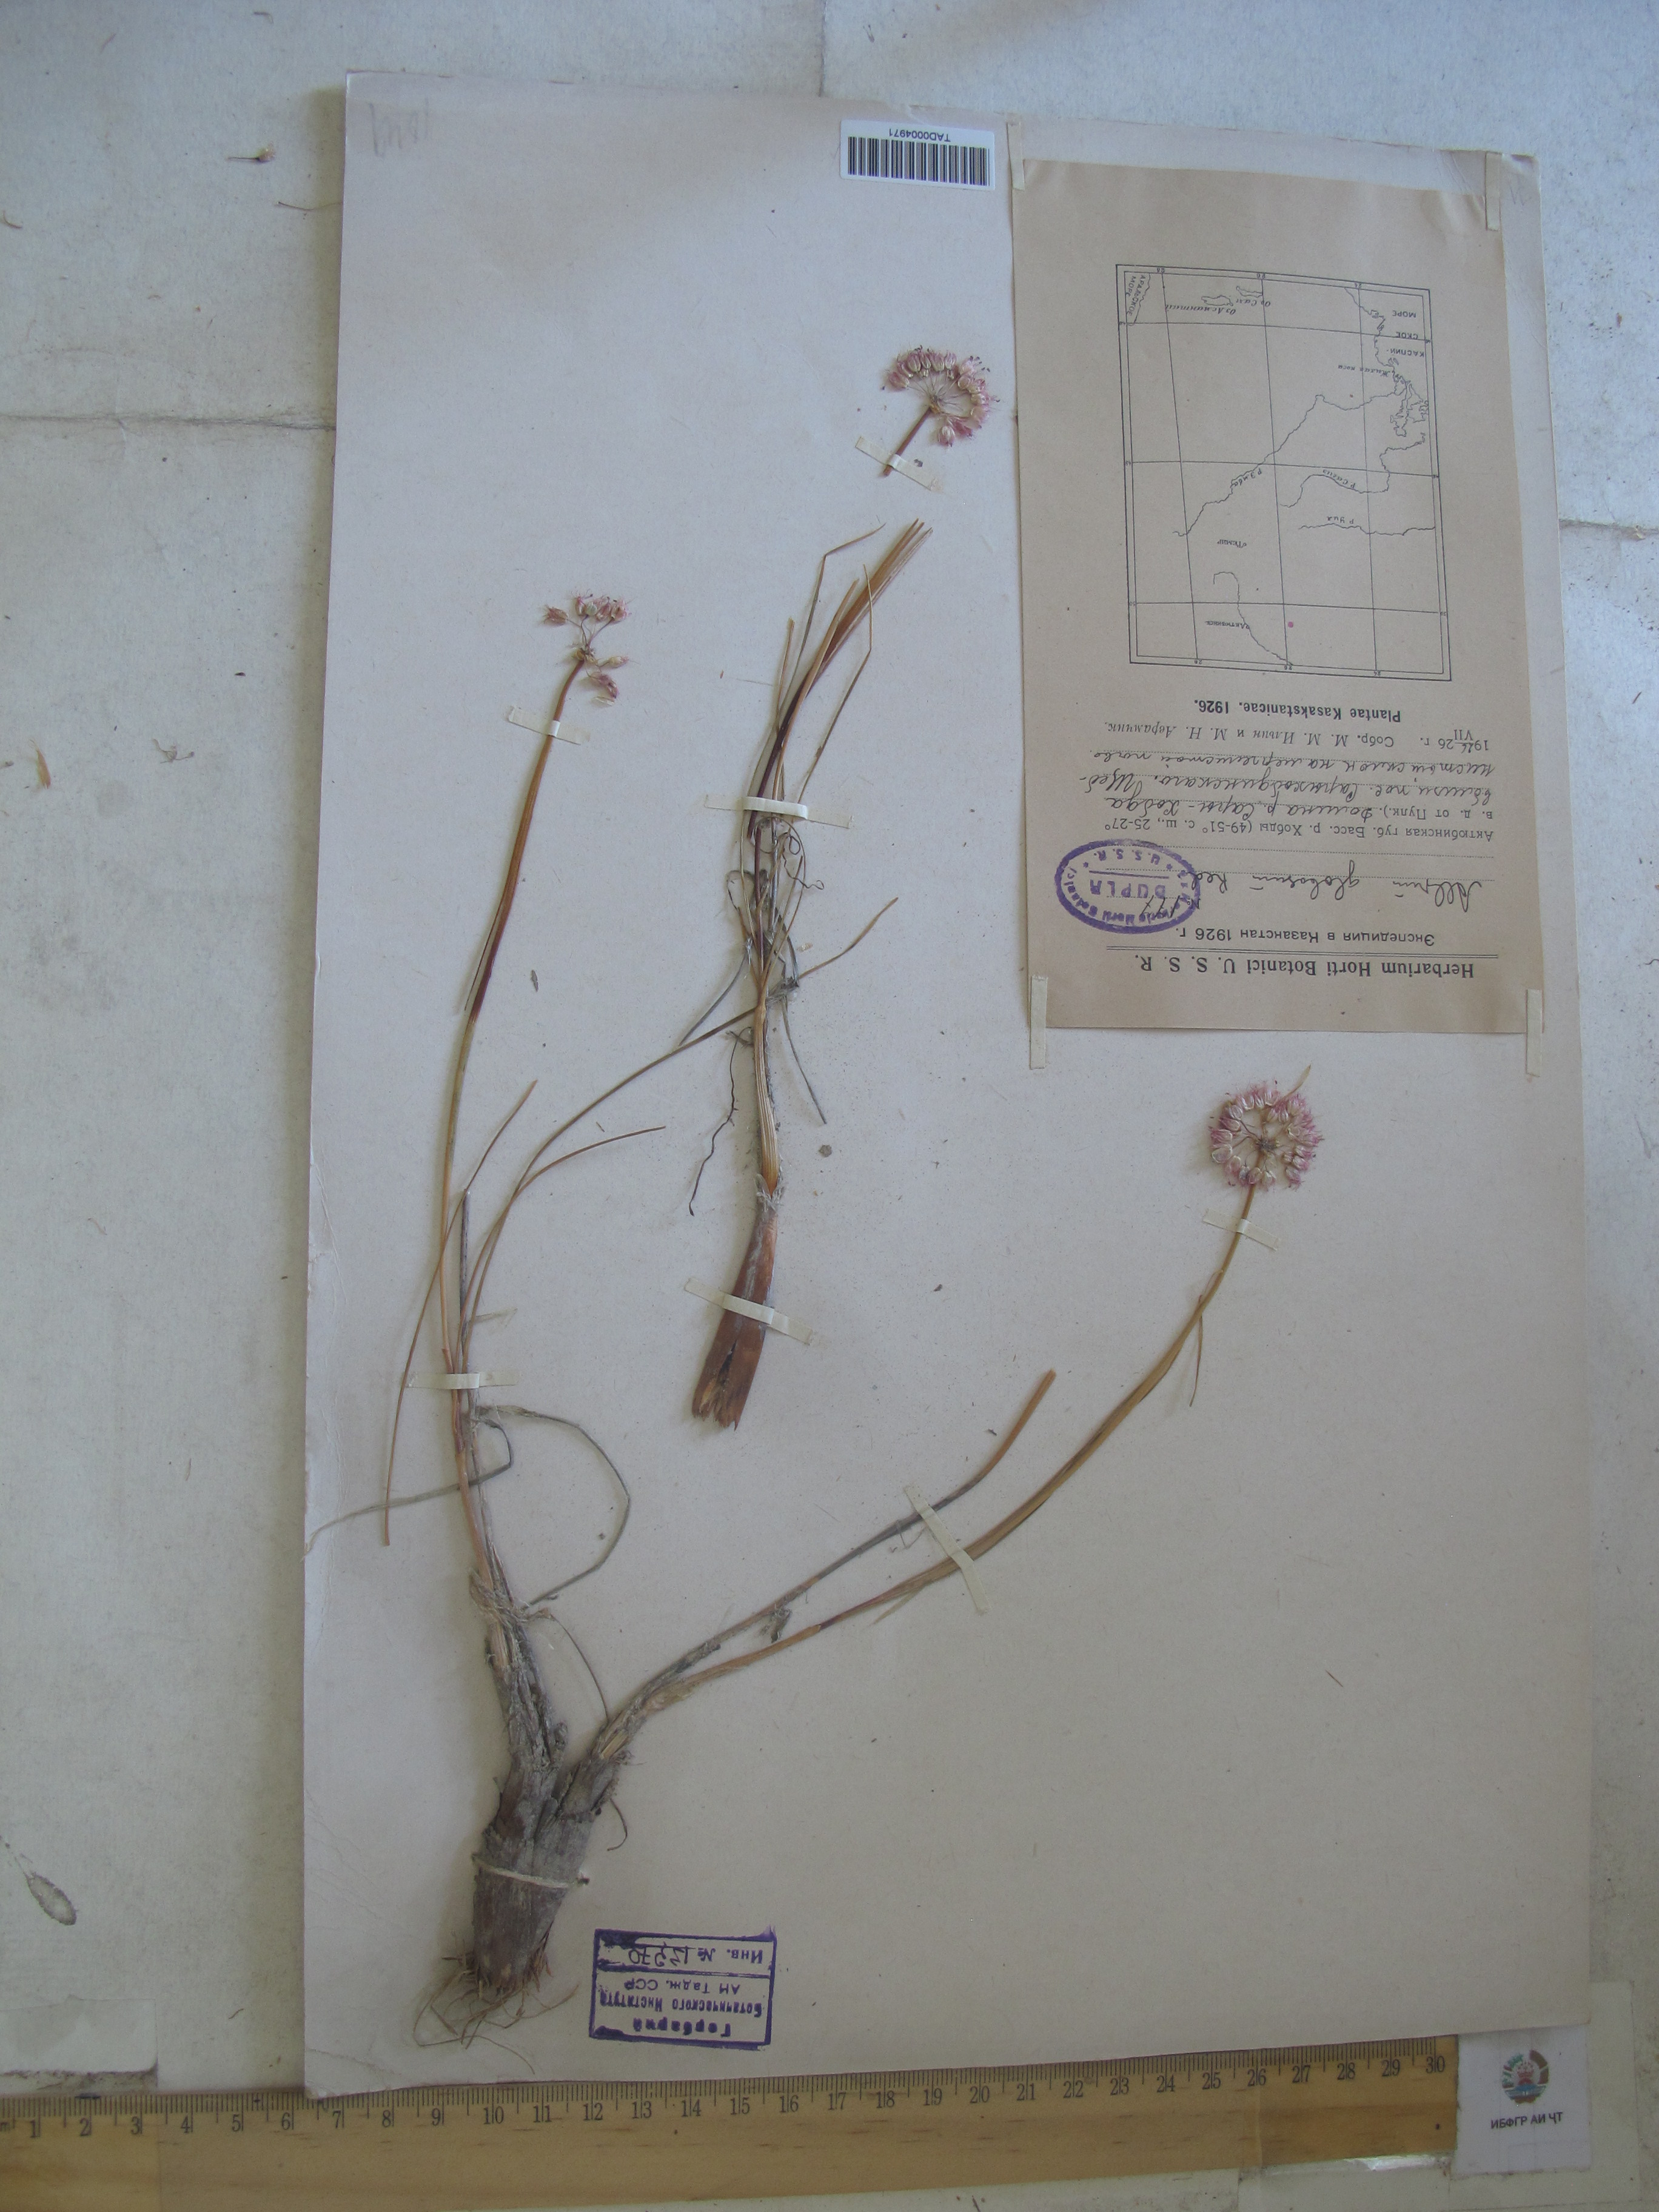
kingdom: Plantae
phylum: Tracheophyta
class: Liliopsida
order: Asparagales
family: Amaryllidaceae
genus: Allium
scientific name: Allium
